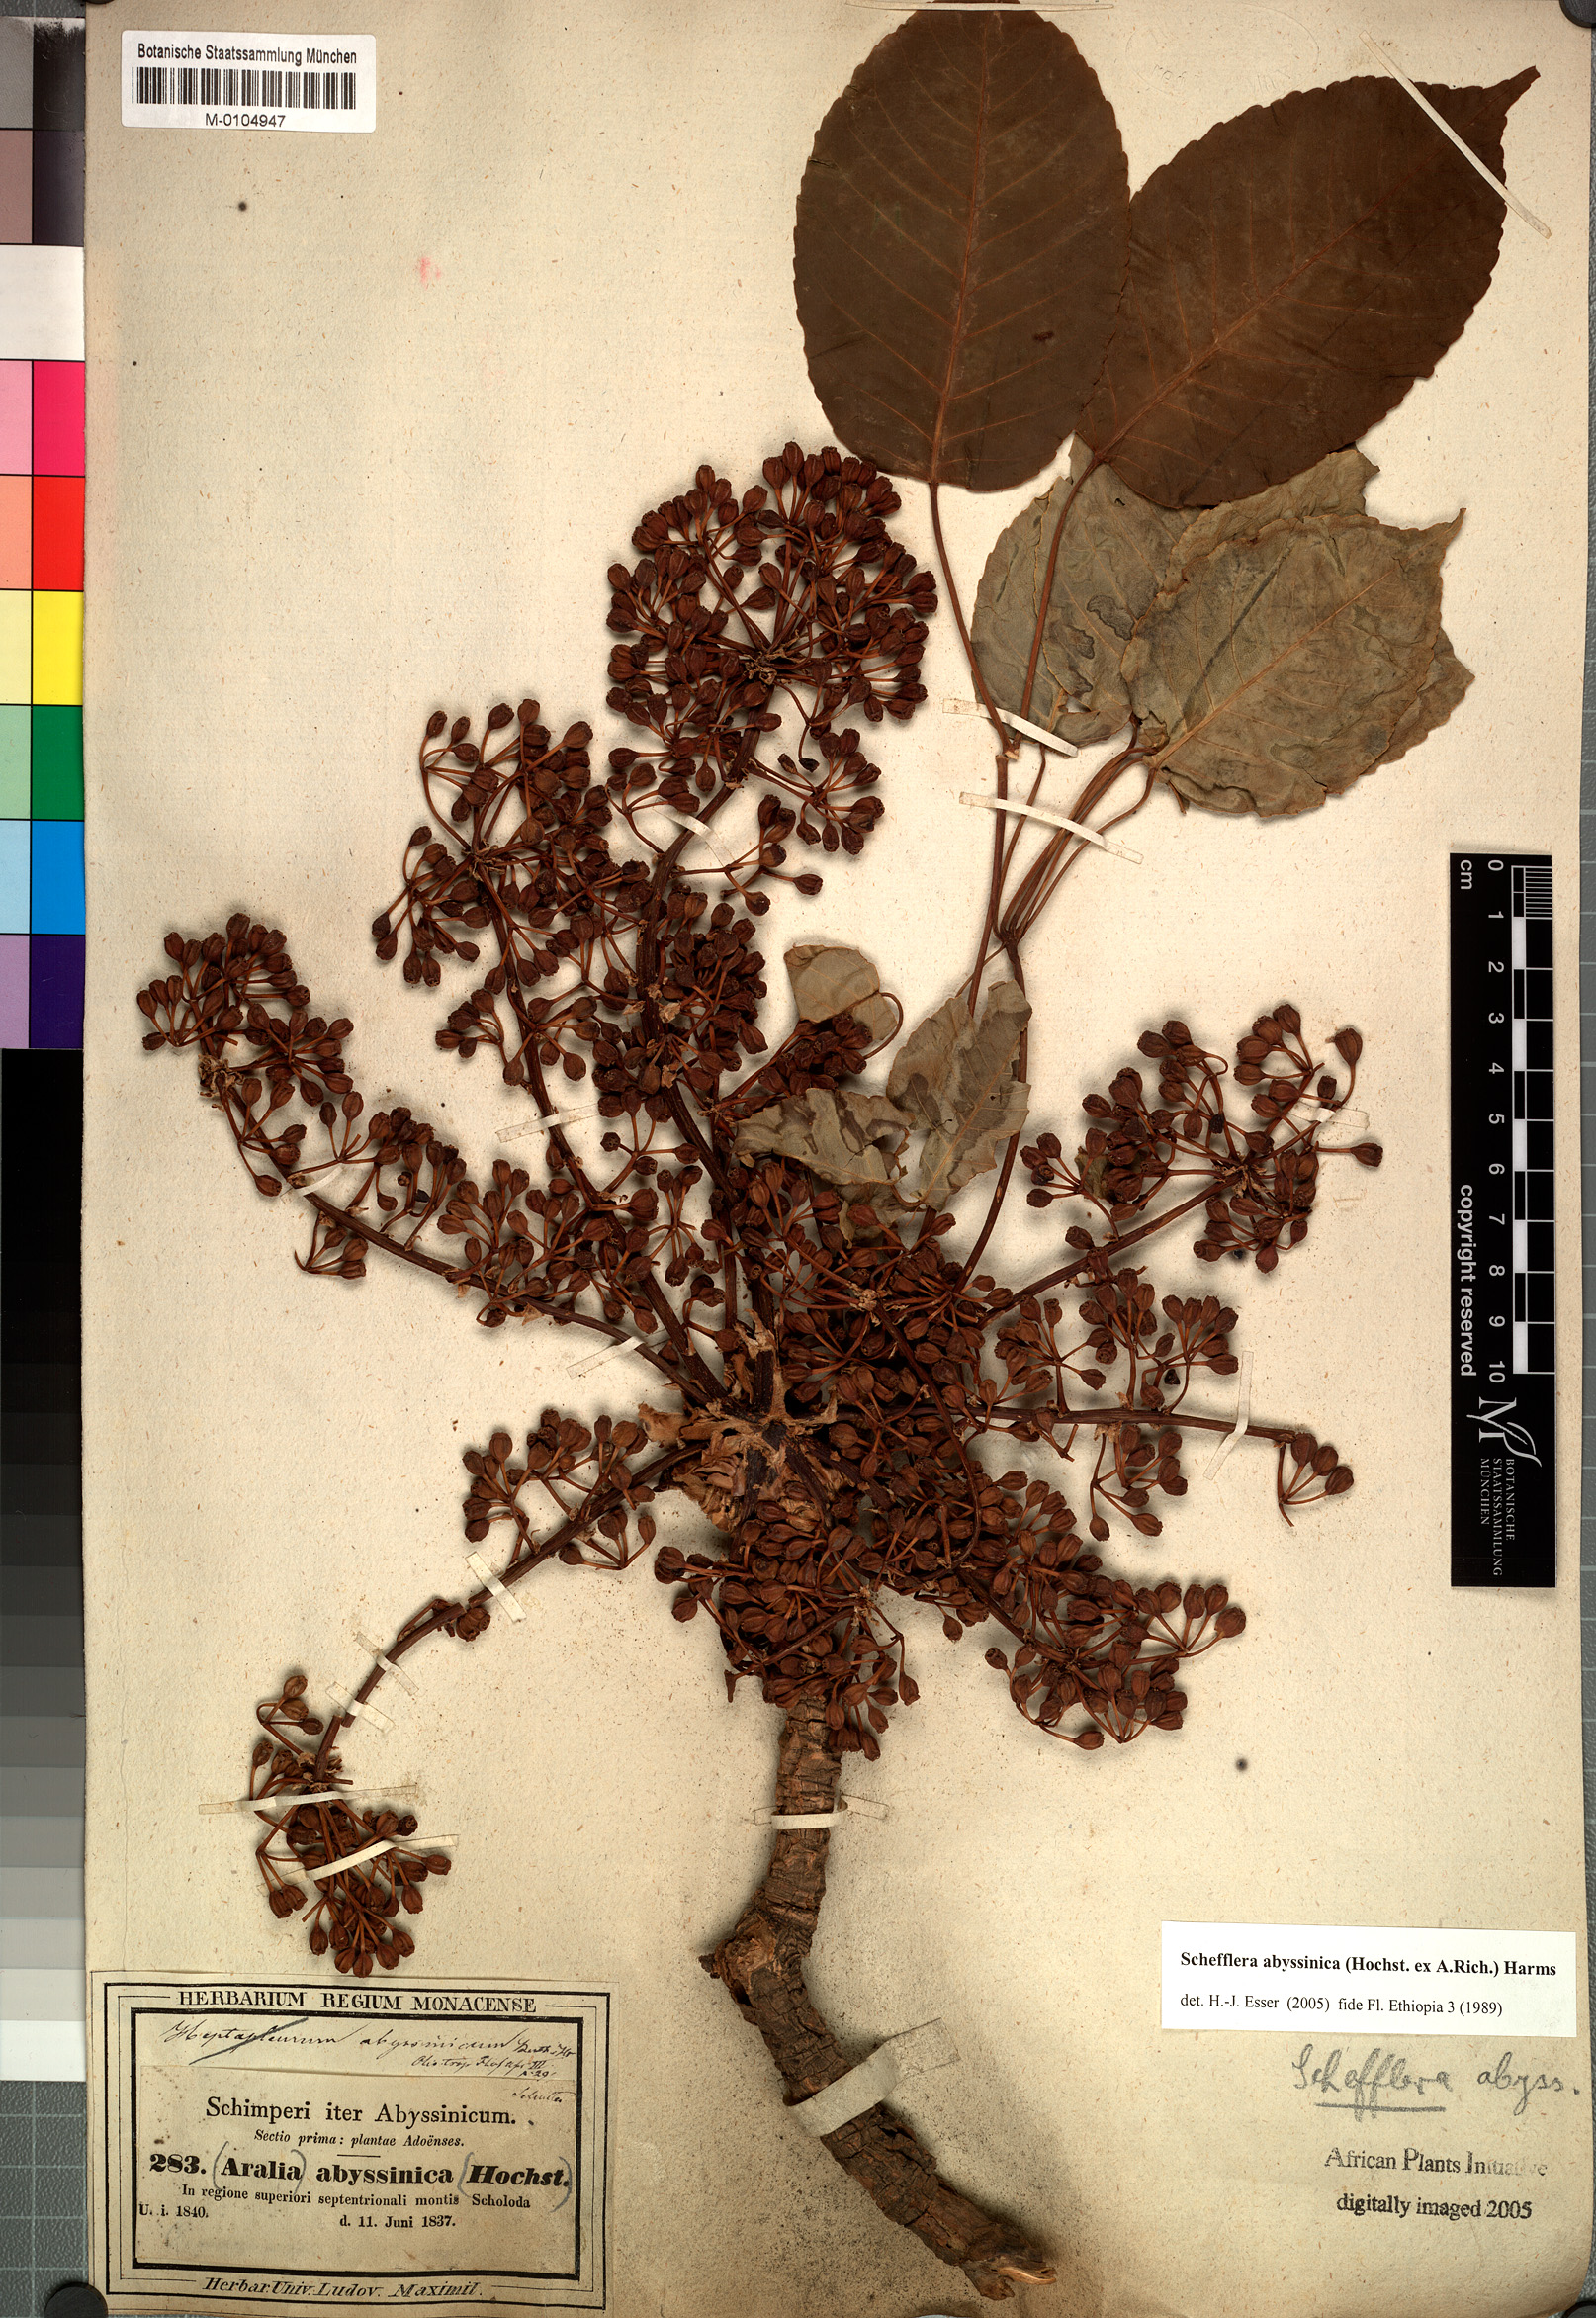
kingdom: Plantae
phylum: Tracheophyta
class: Magnoliopsida
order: Apiales
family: Araliaceae
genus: Astropanax
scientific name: Astropanax abyssinicum
